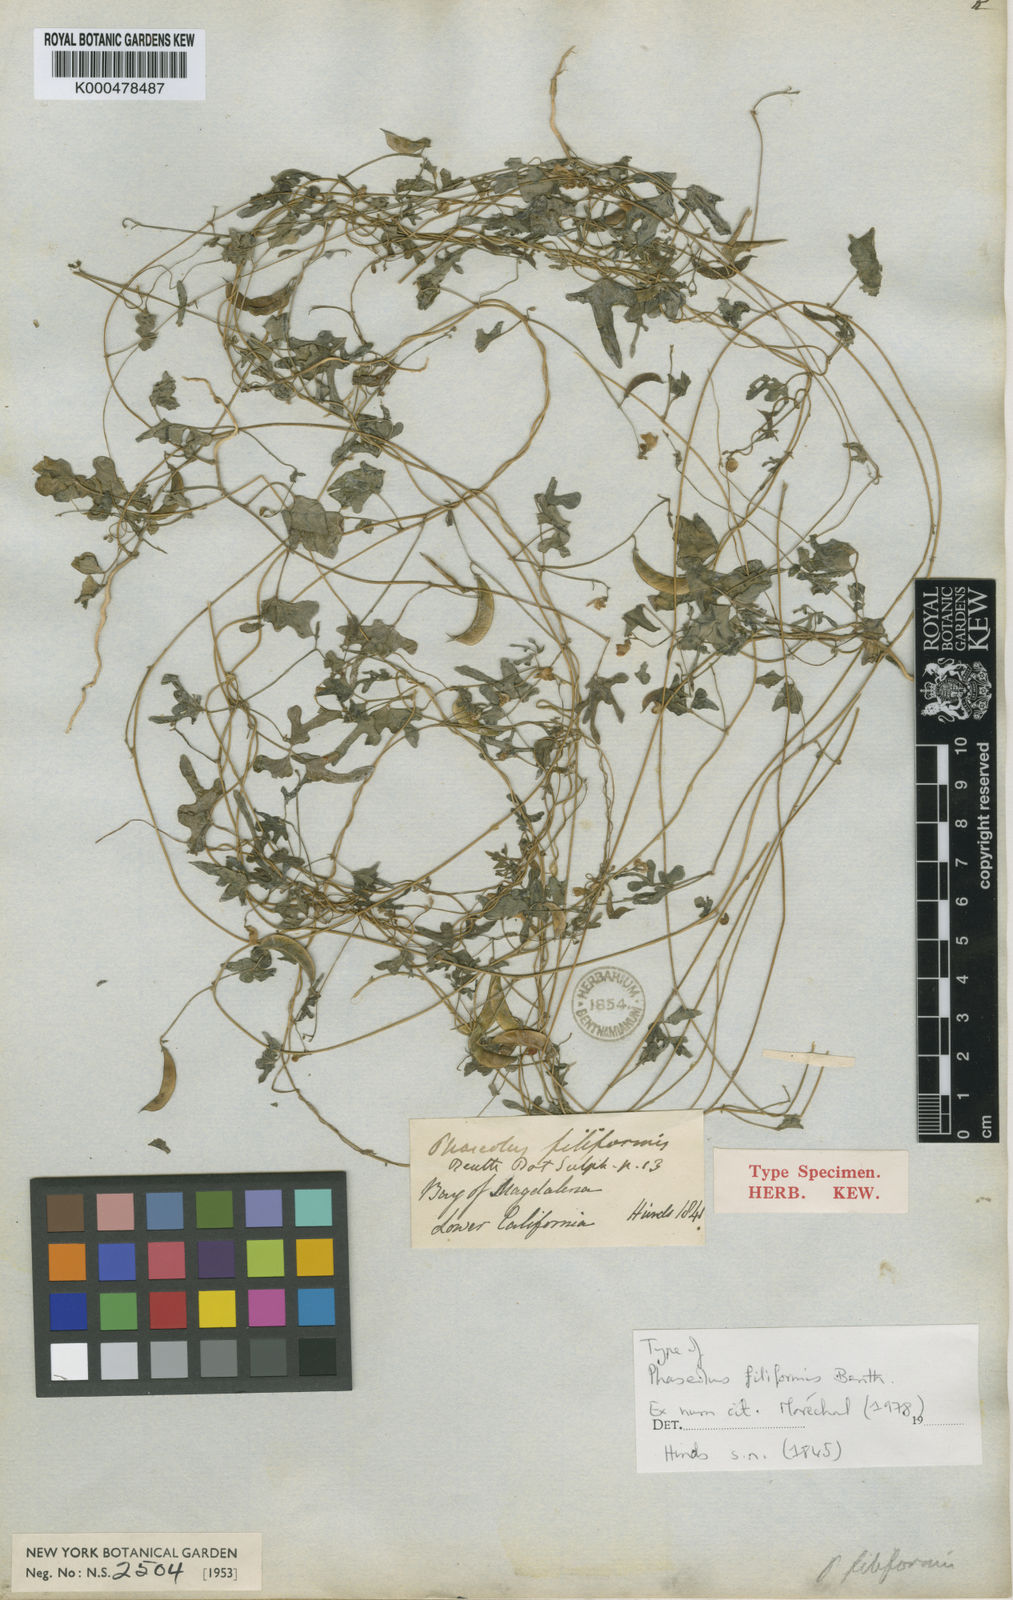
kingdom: Plantae
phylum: Tracheophyta
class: Magnoliopsida
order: Fabales
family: Fabaceae
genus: Phaseolus
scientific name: Phaseolus filiformis
